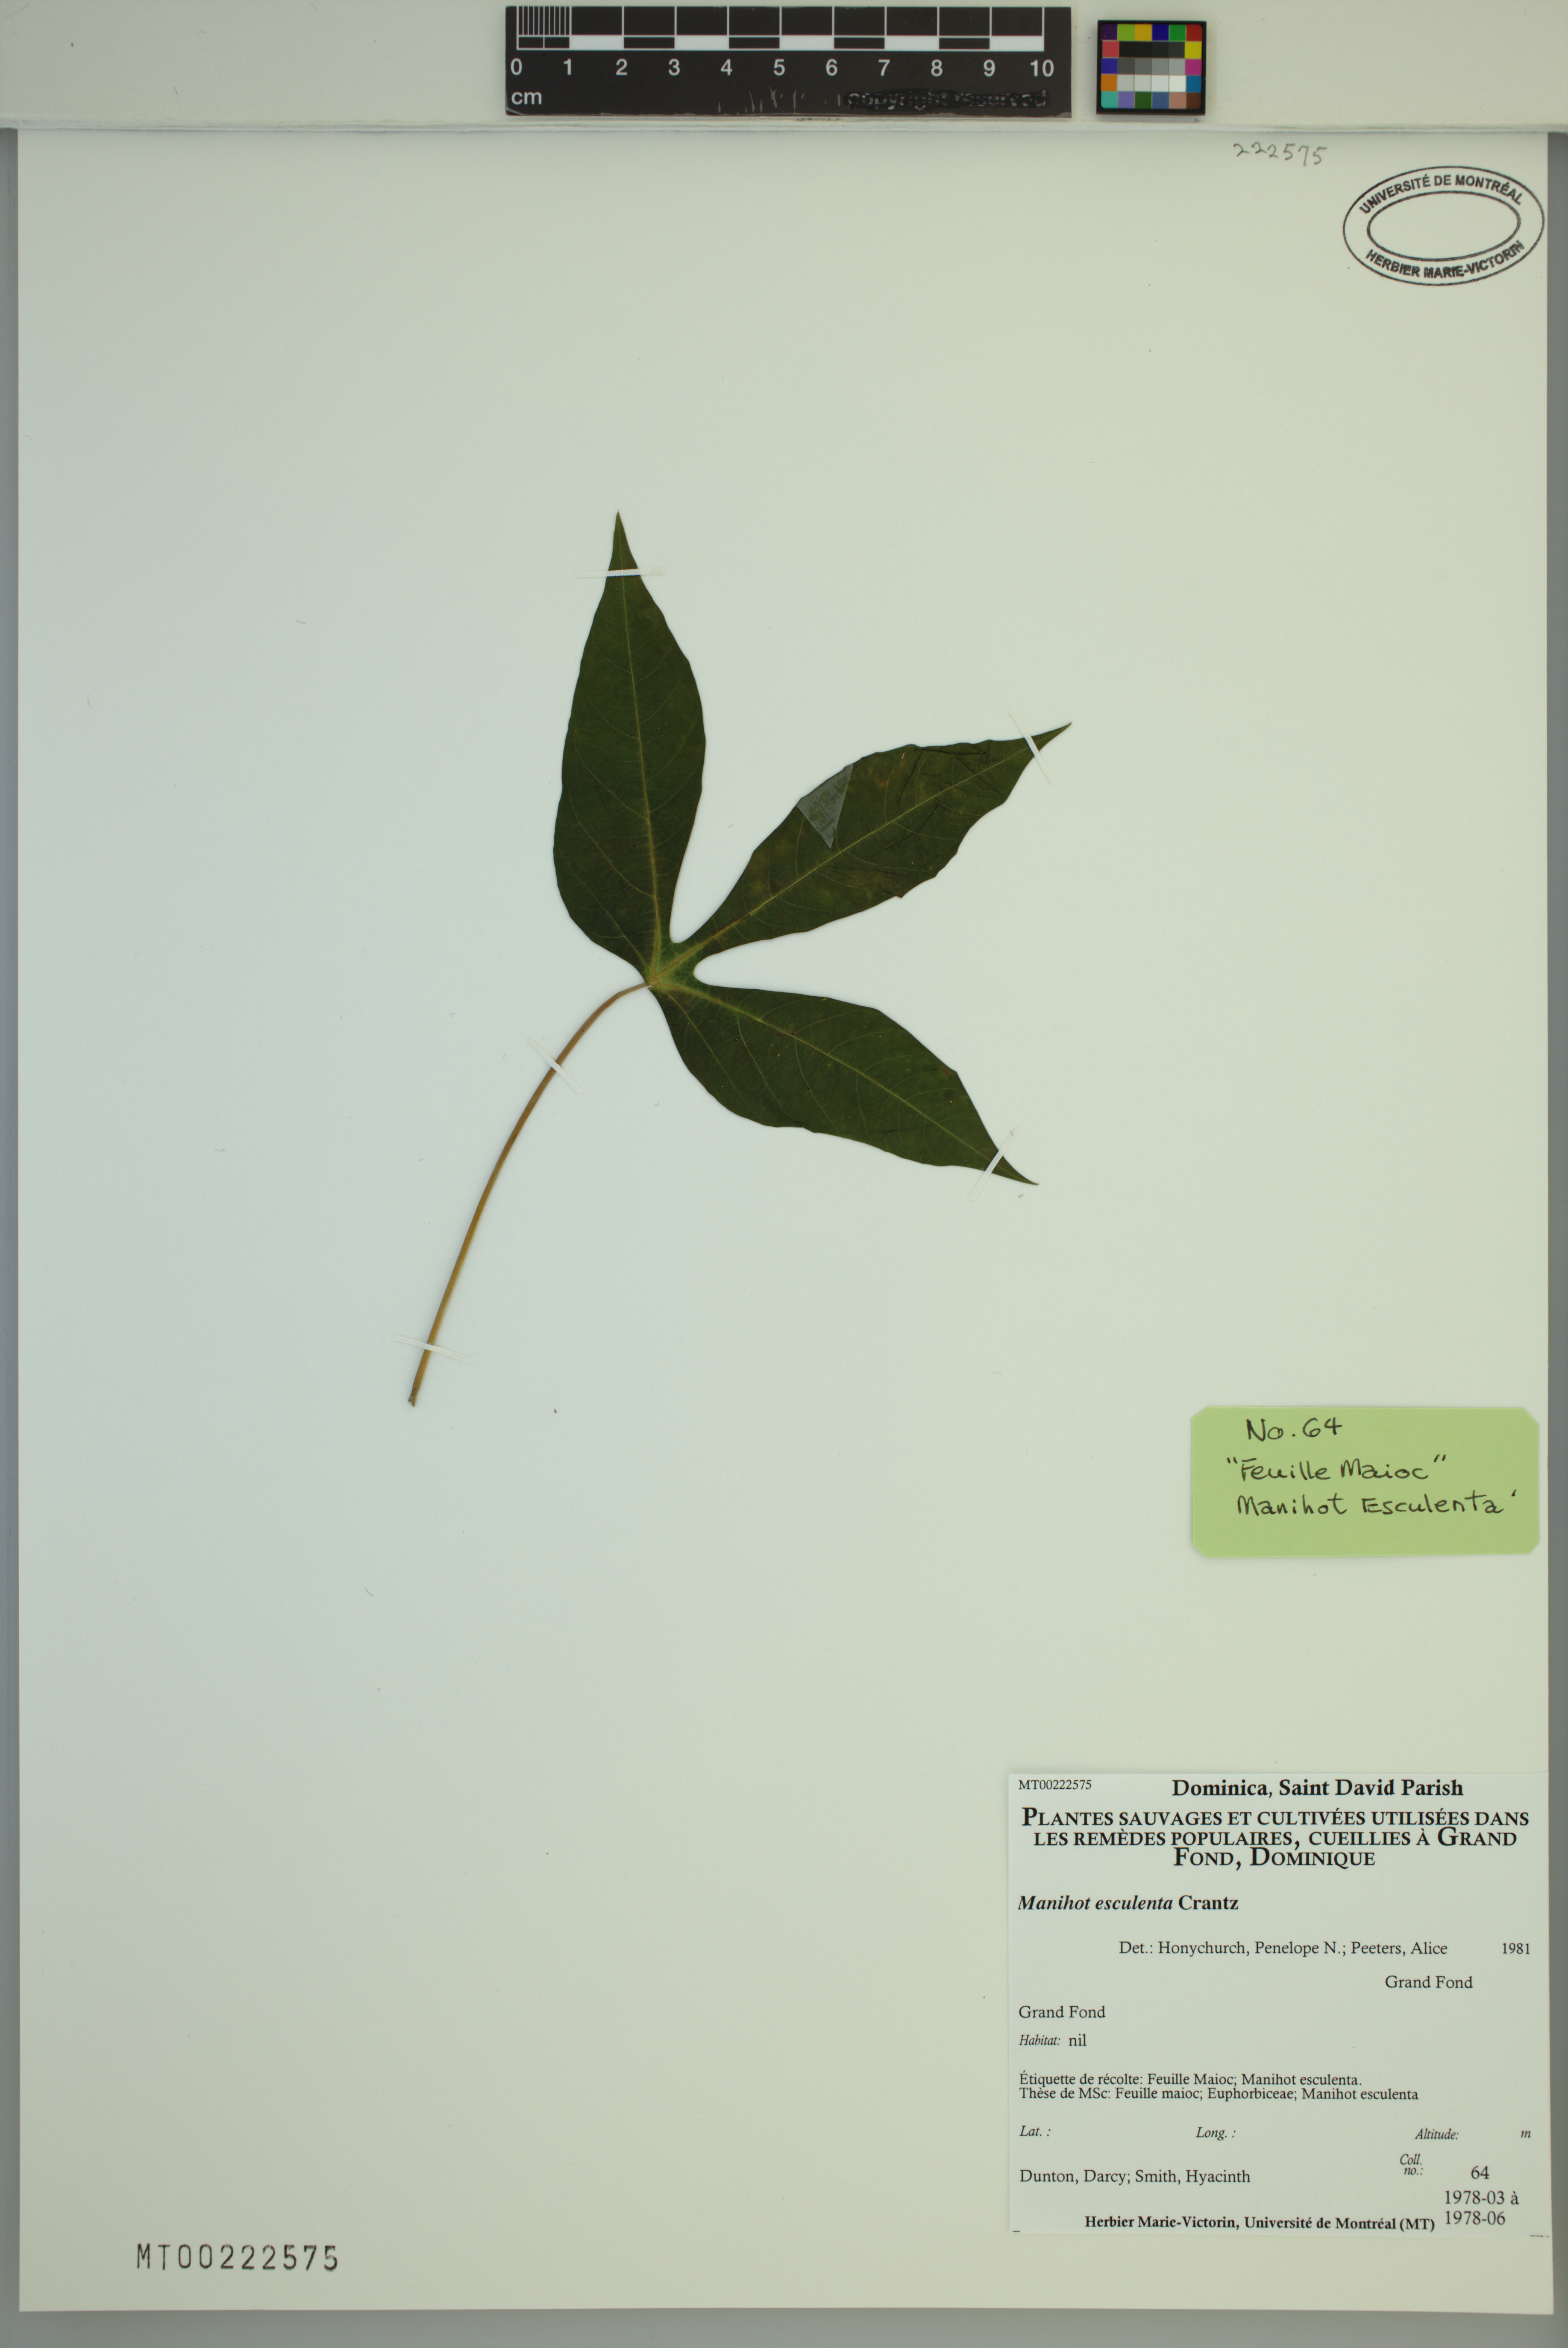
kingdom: Plantae
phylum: Tracheophyta
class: Magnoliopsida
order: Malpighiales
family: Euphorbiaceae
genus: Manihot
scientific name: Manihot esculenta
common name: Cassava
